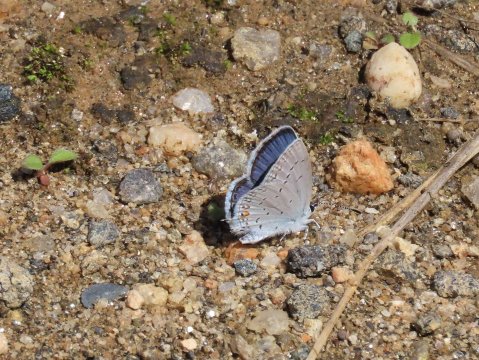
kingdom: Animalia
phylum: Arthropoda
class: Insecta
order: Lepidoptera
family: Lycaenidae
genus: Elkalyce
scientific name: Elkalyce comyntas
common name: Eastern Tailed-Blue
